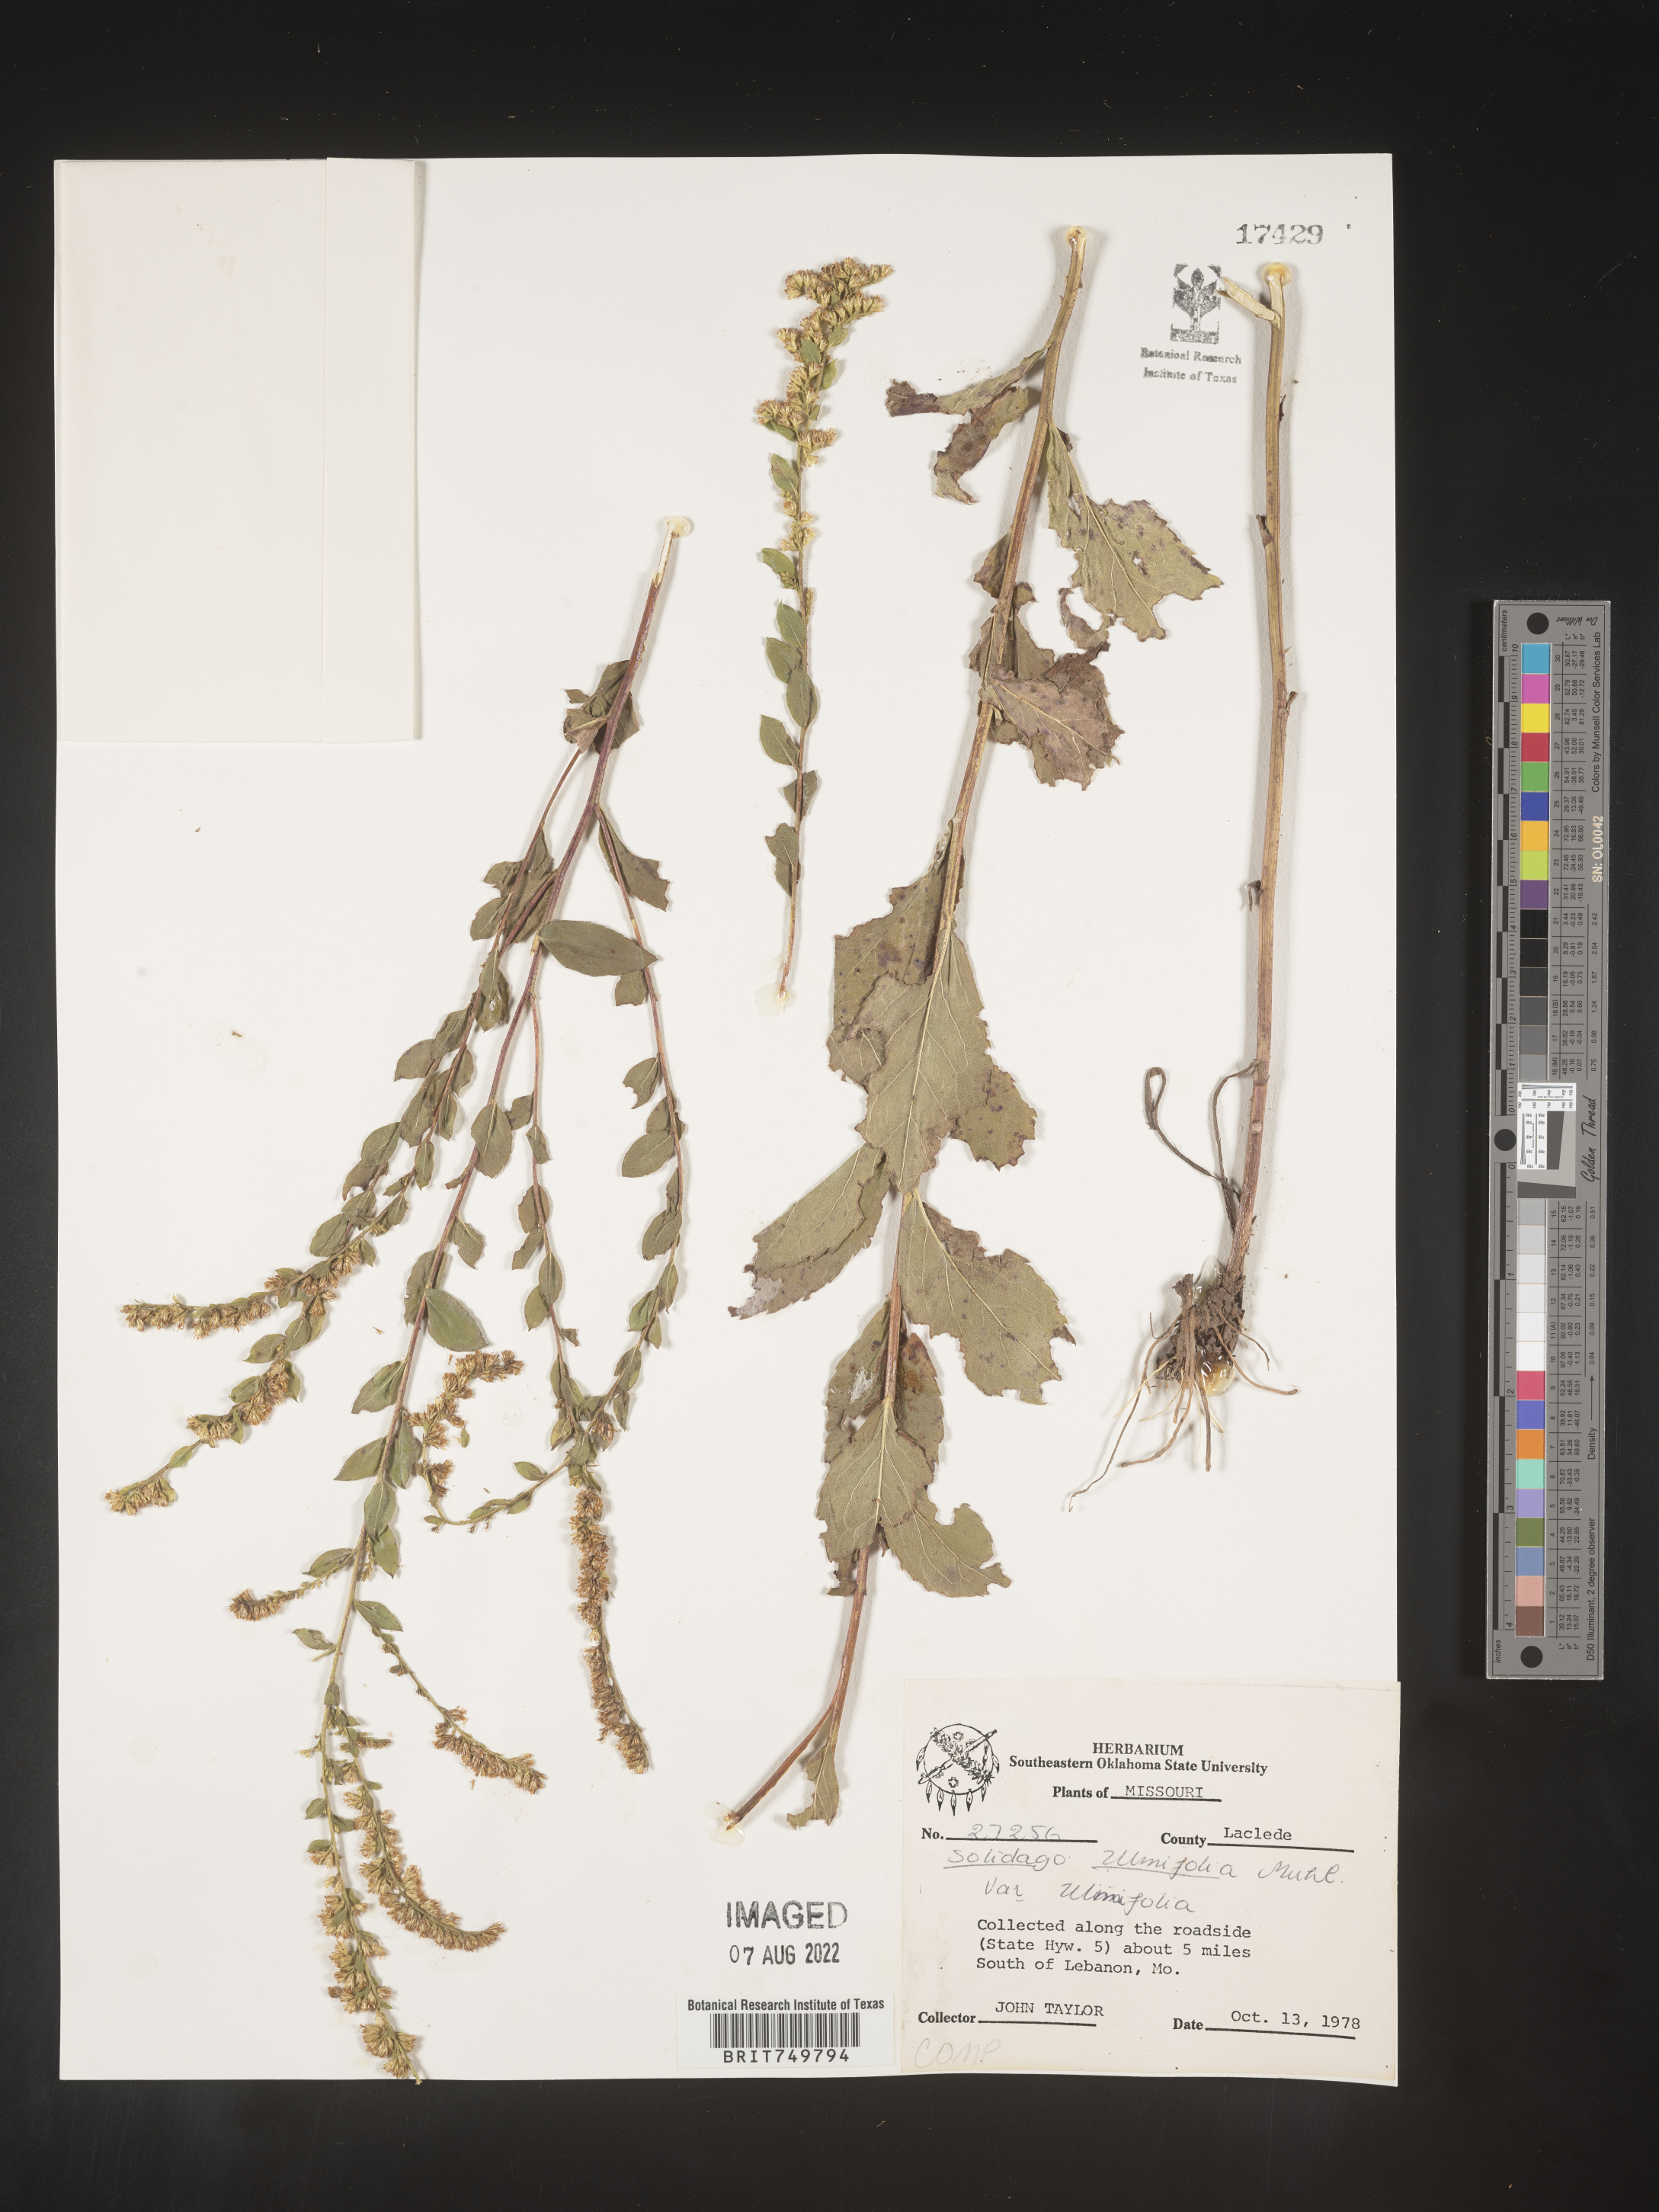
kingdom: Plantae
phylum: Tracheophyta
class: Magnoliopsida
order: Asterales
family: Asteraceae
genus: Solidago
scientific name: Solidago ulmifolia
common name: Elm-leaf goldenrod
